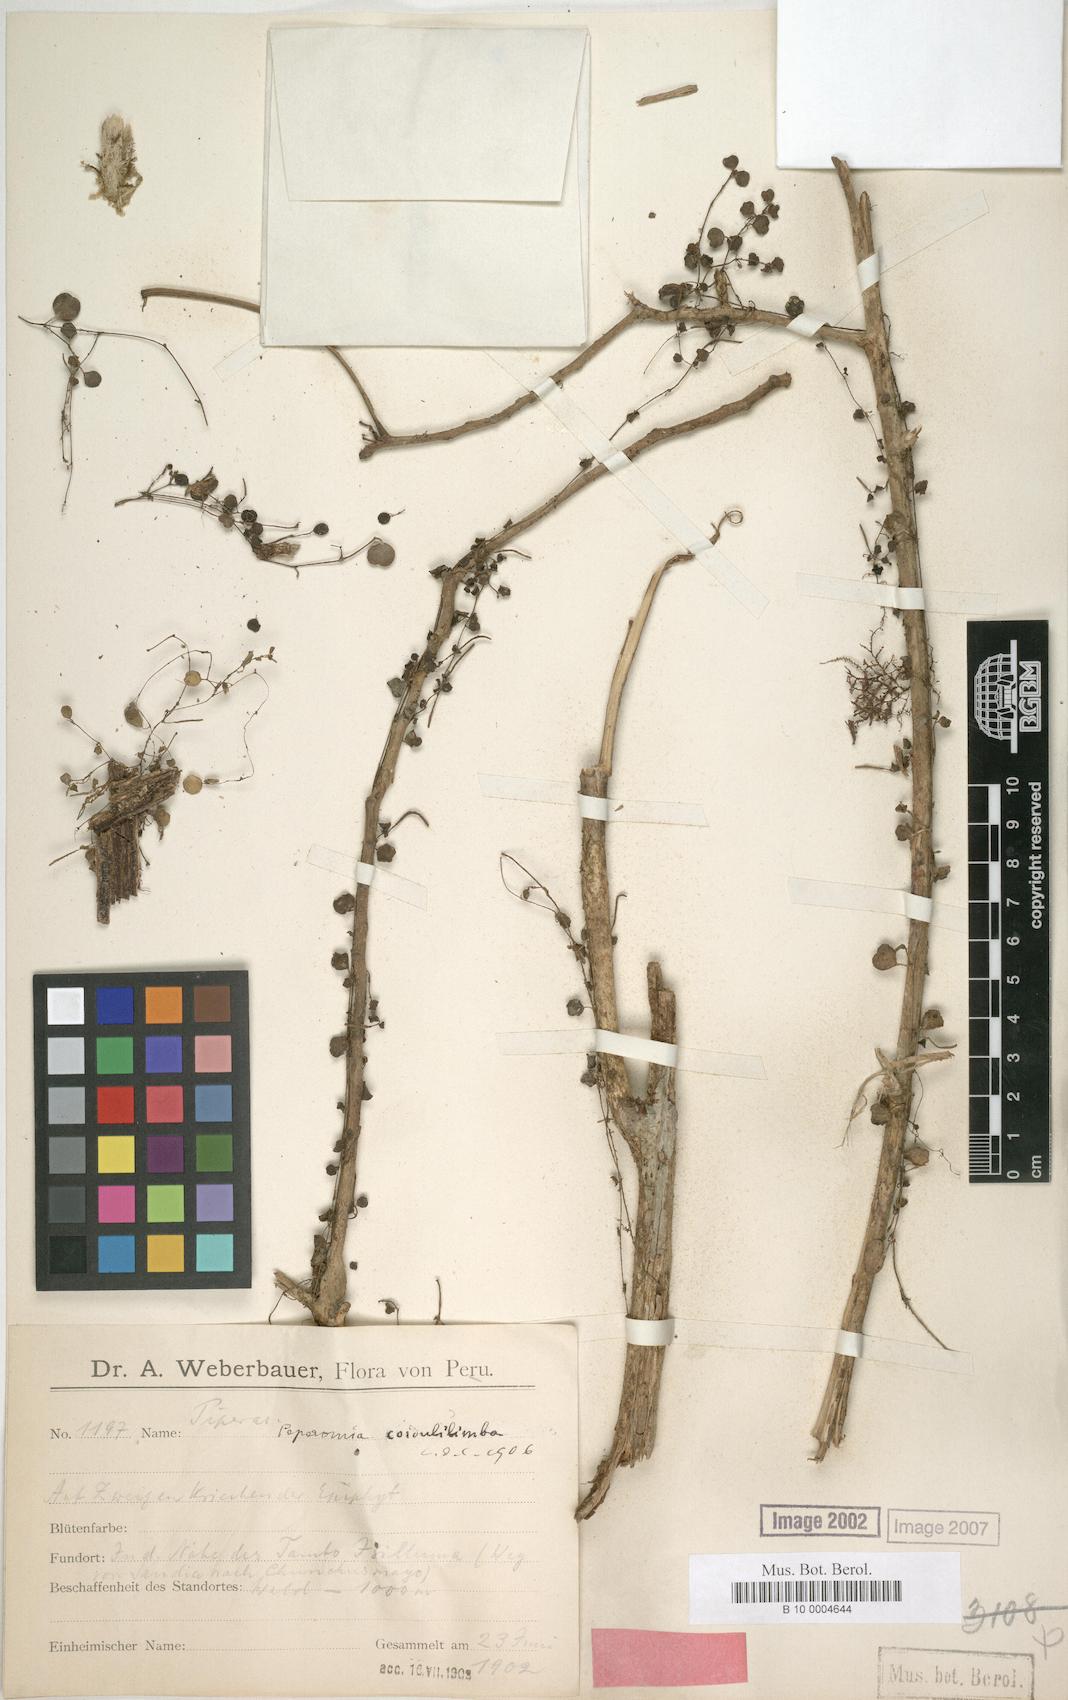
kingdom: Plantae
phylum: Tracheophyta
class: Magnoliopsida
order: Piperales
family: Piperaceae
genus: Peperomia
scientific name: Peperomia cordulilimba
